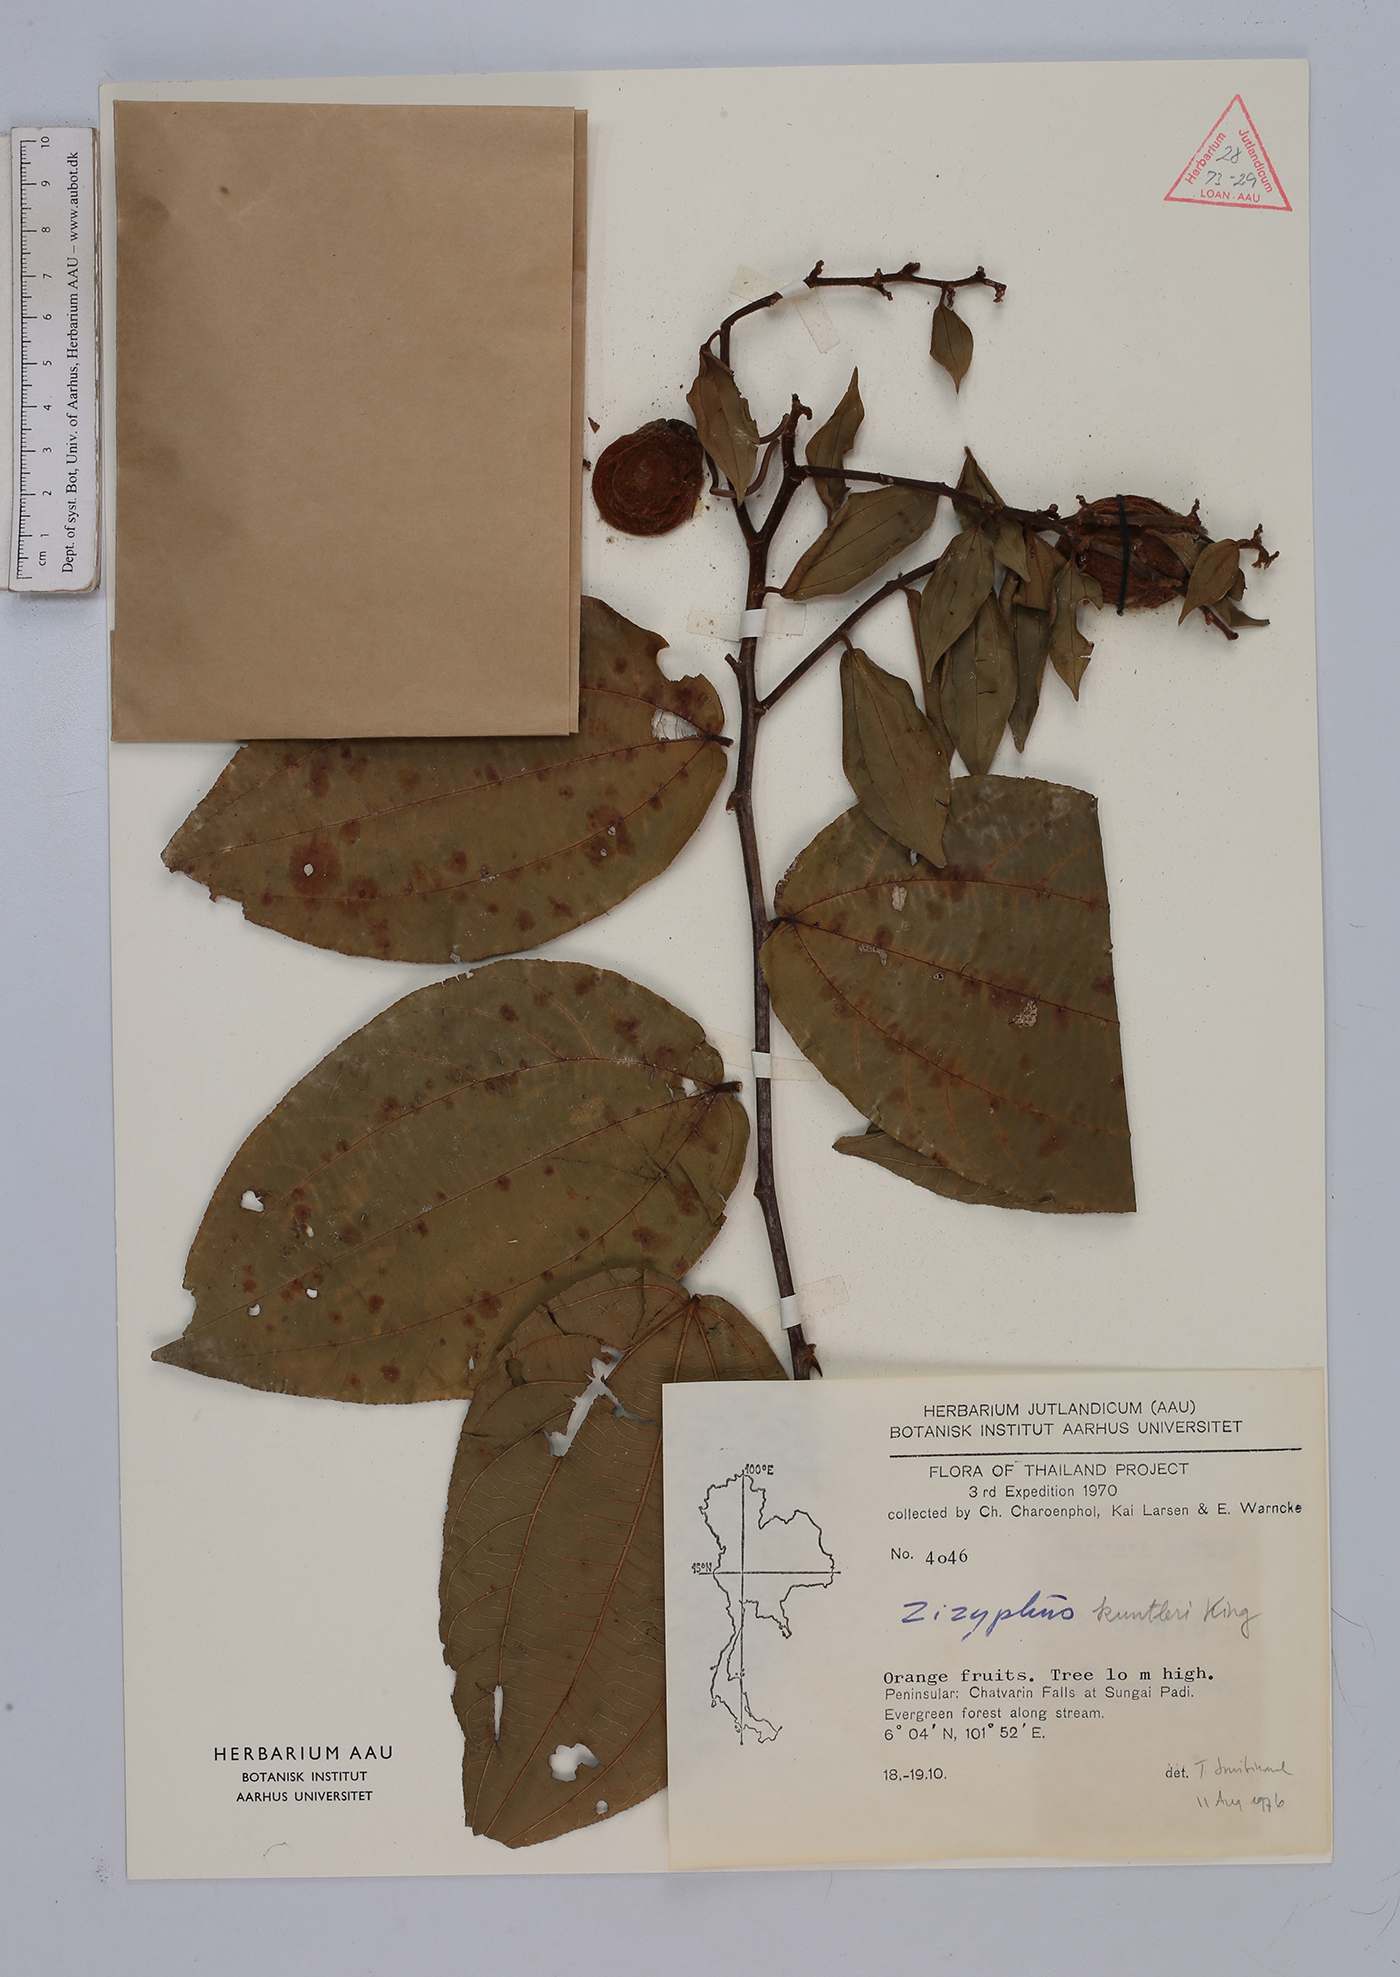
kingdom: Plantae
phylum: Tracheophyta
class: Magnoliopsida
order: Rosales
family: Rhamnaceae
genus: Ziziphus
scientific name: Ziziphus kunstleri
